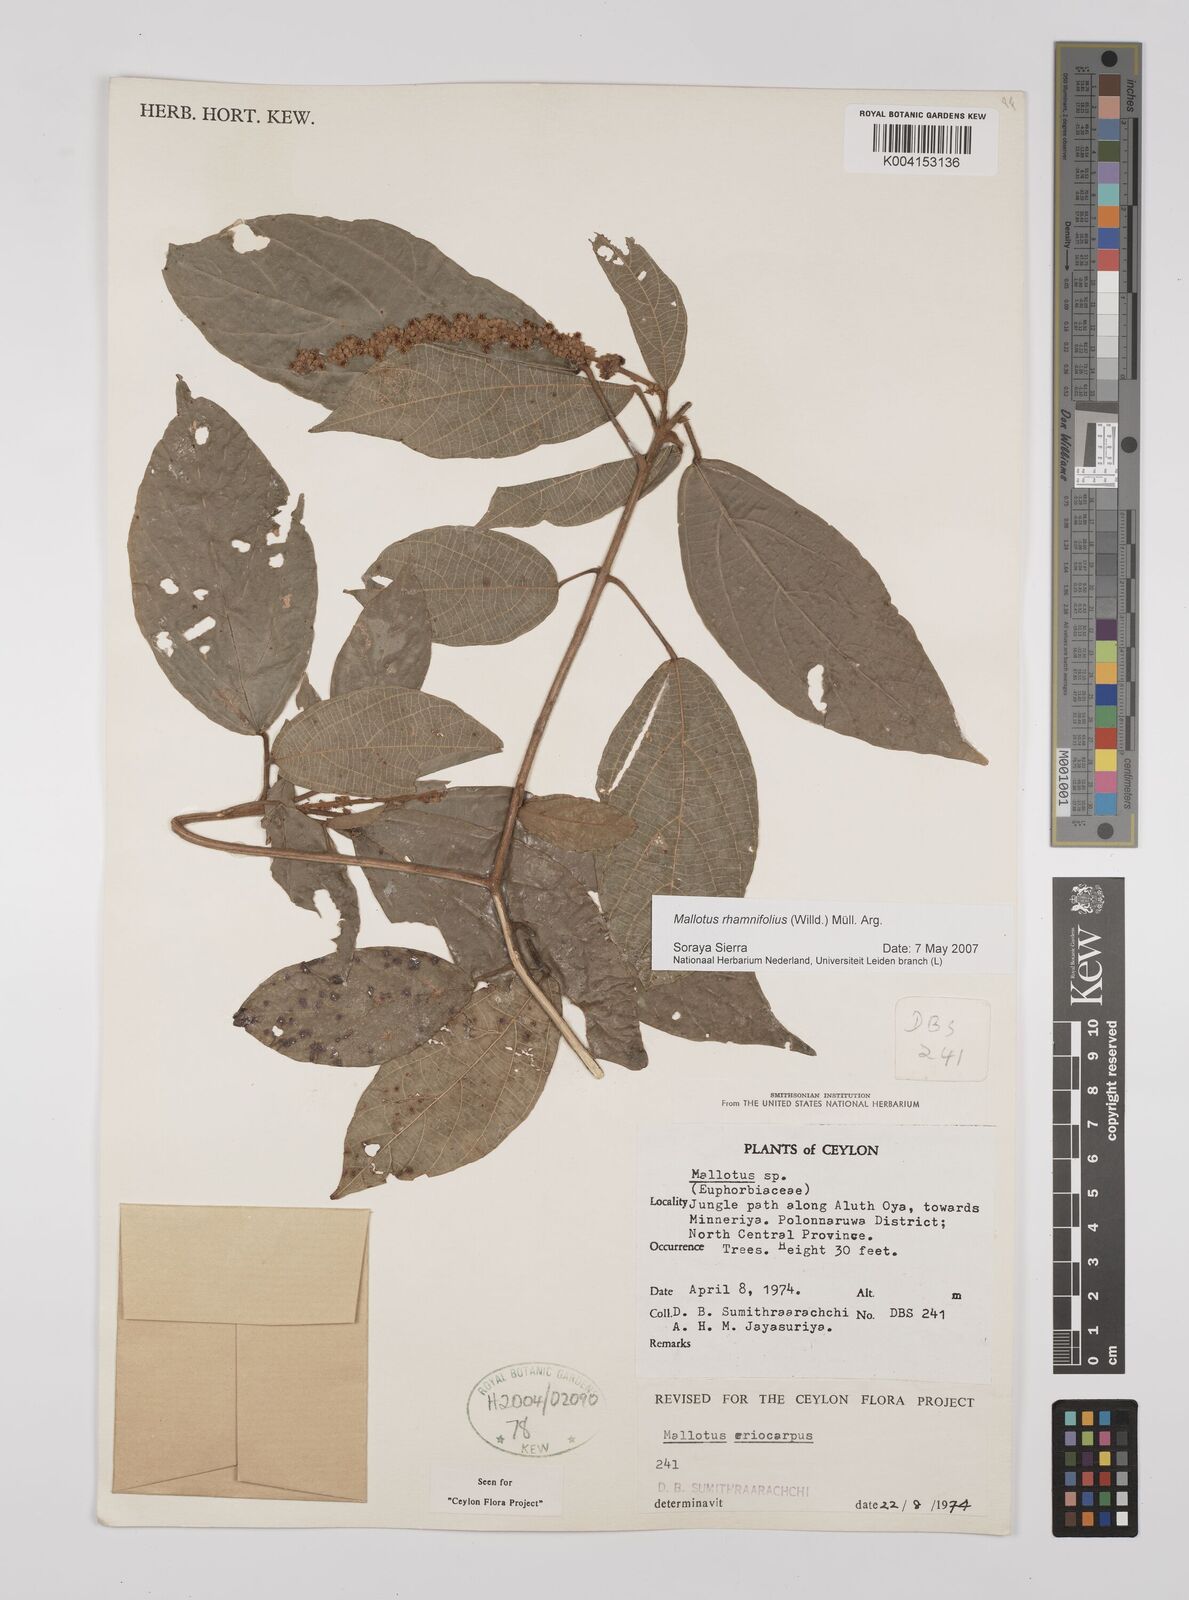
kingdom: Plantae
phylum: Tracheophyta
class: Magnoliopsida
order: Malpighiales
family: Euphorbiaceae
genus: Mallotus
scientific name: Mallotus rhamnifolius
